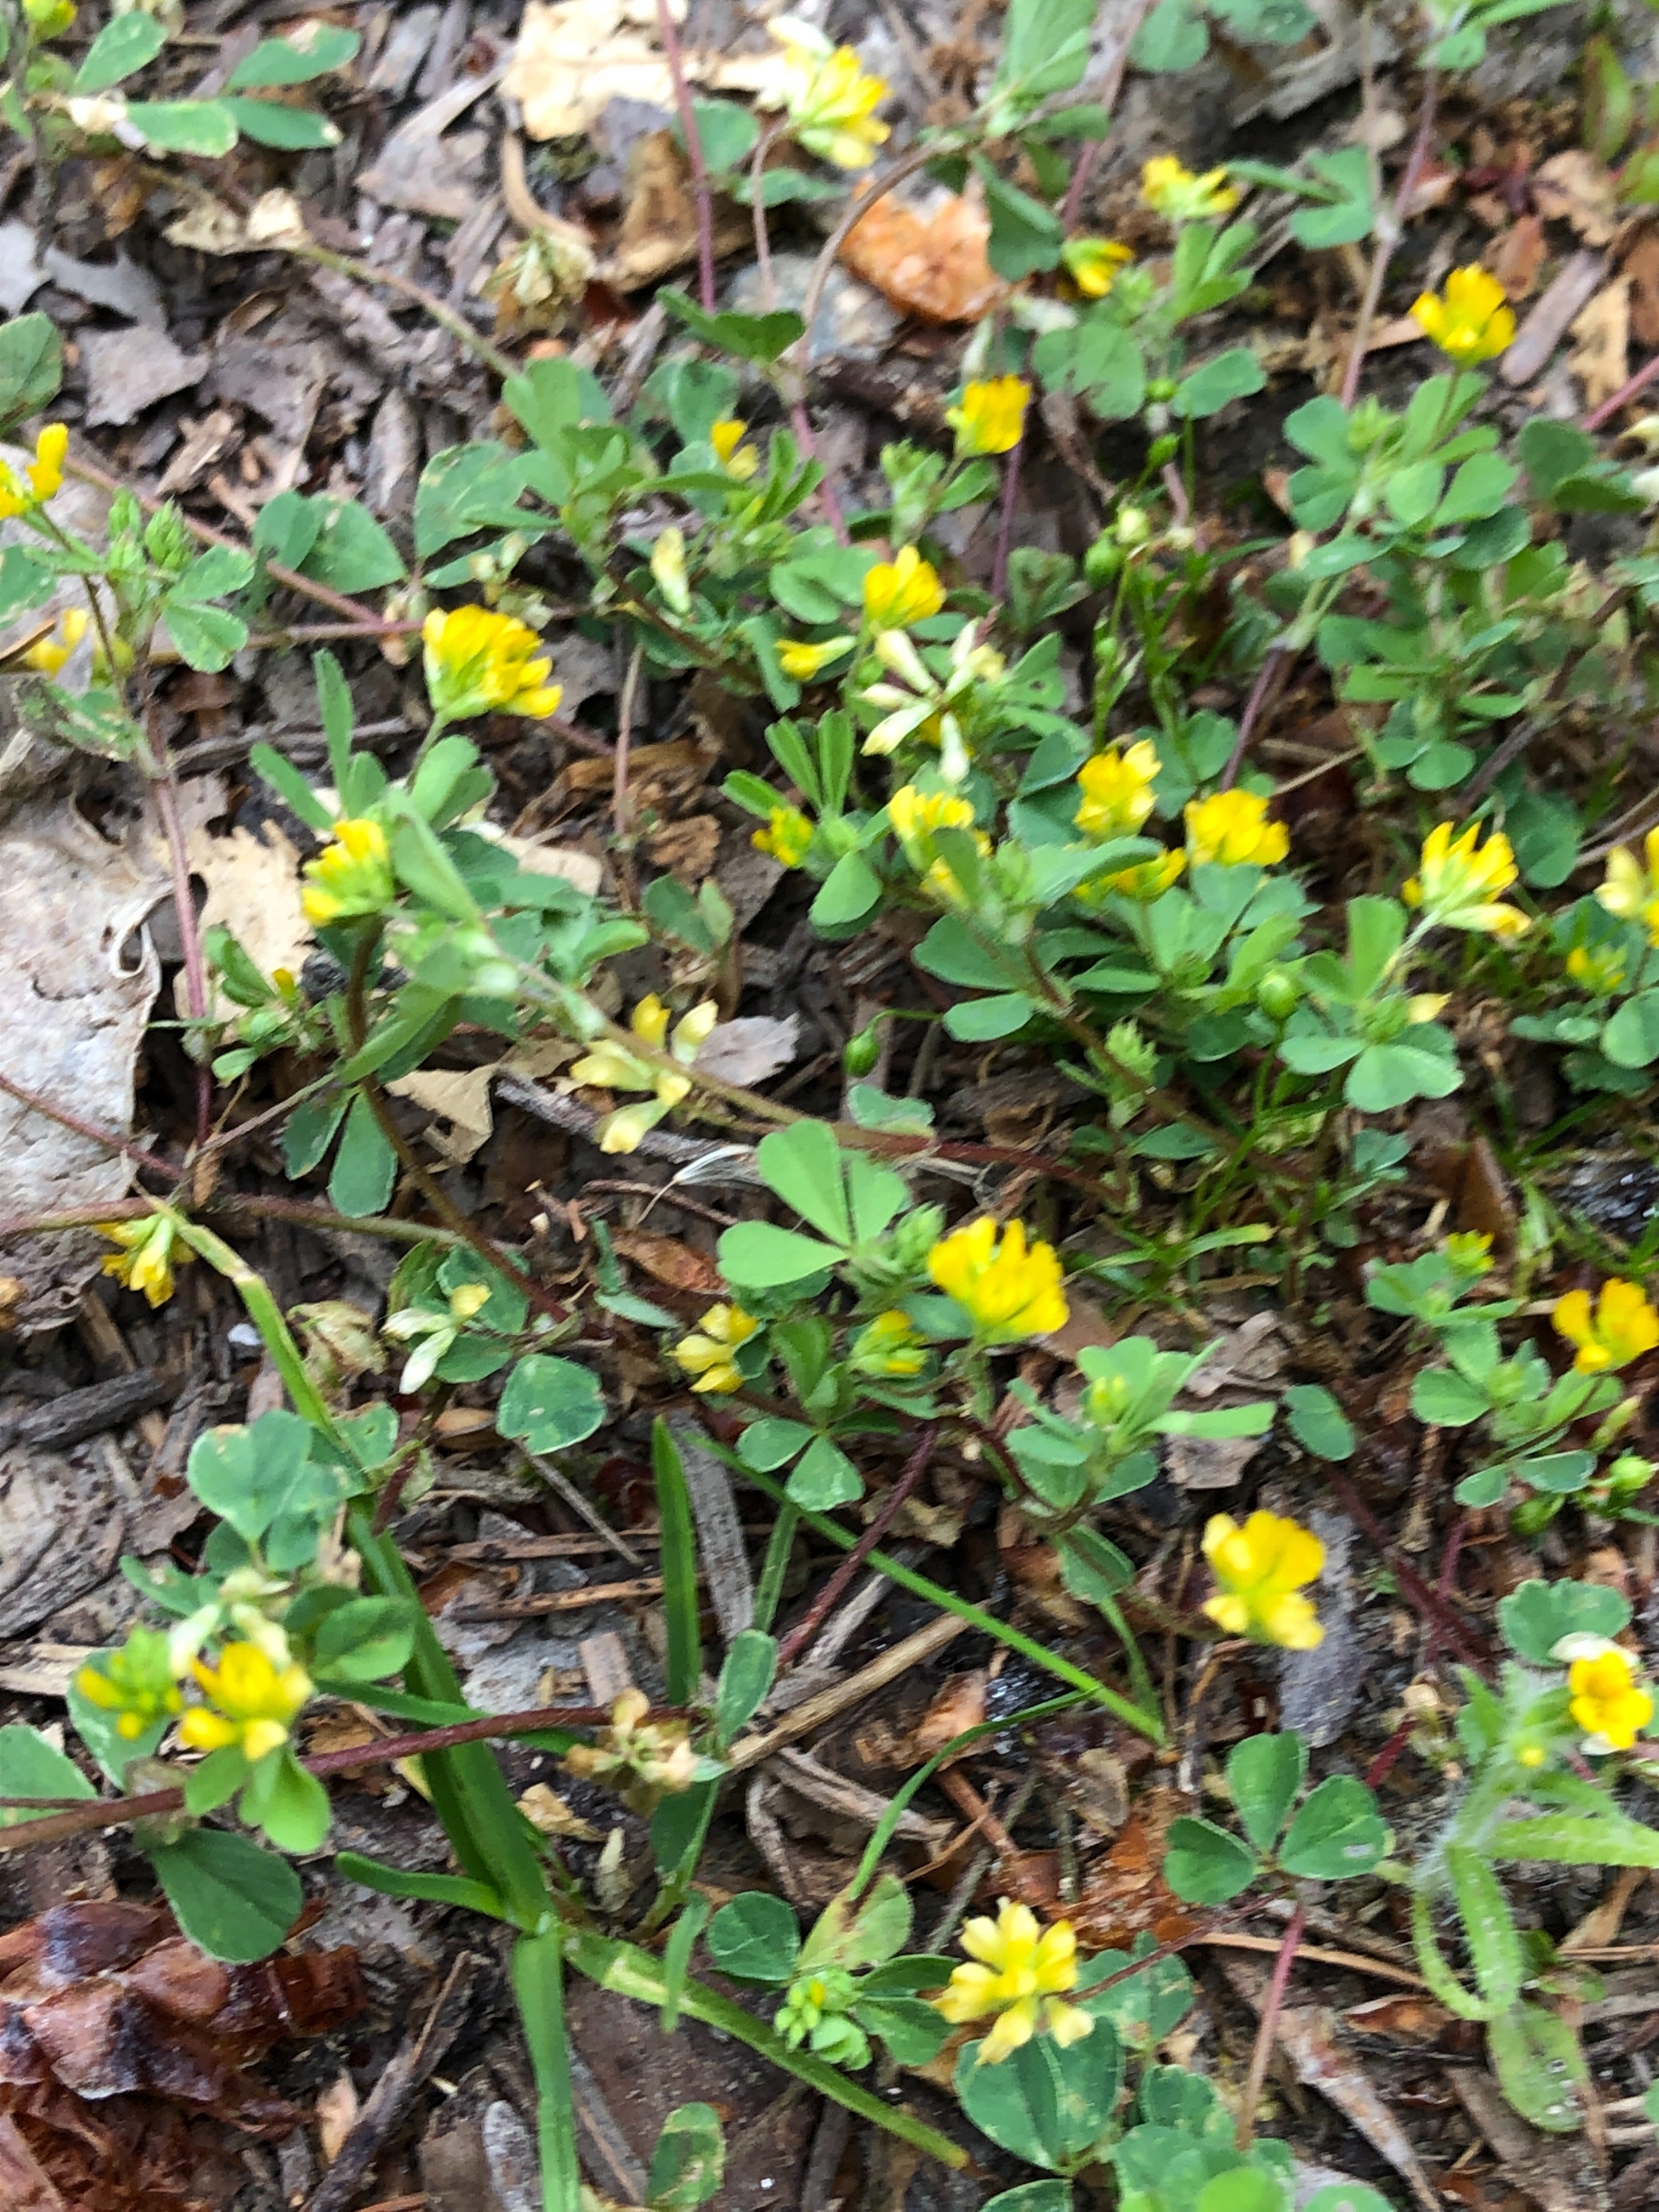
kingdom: Plantae
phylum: Tracheophyta
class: Magnoliopsida
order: Fabales
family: Fabaceae
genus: Trifolium
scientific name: Trifolium dubium
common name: Fin kløver
